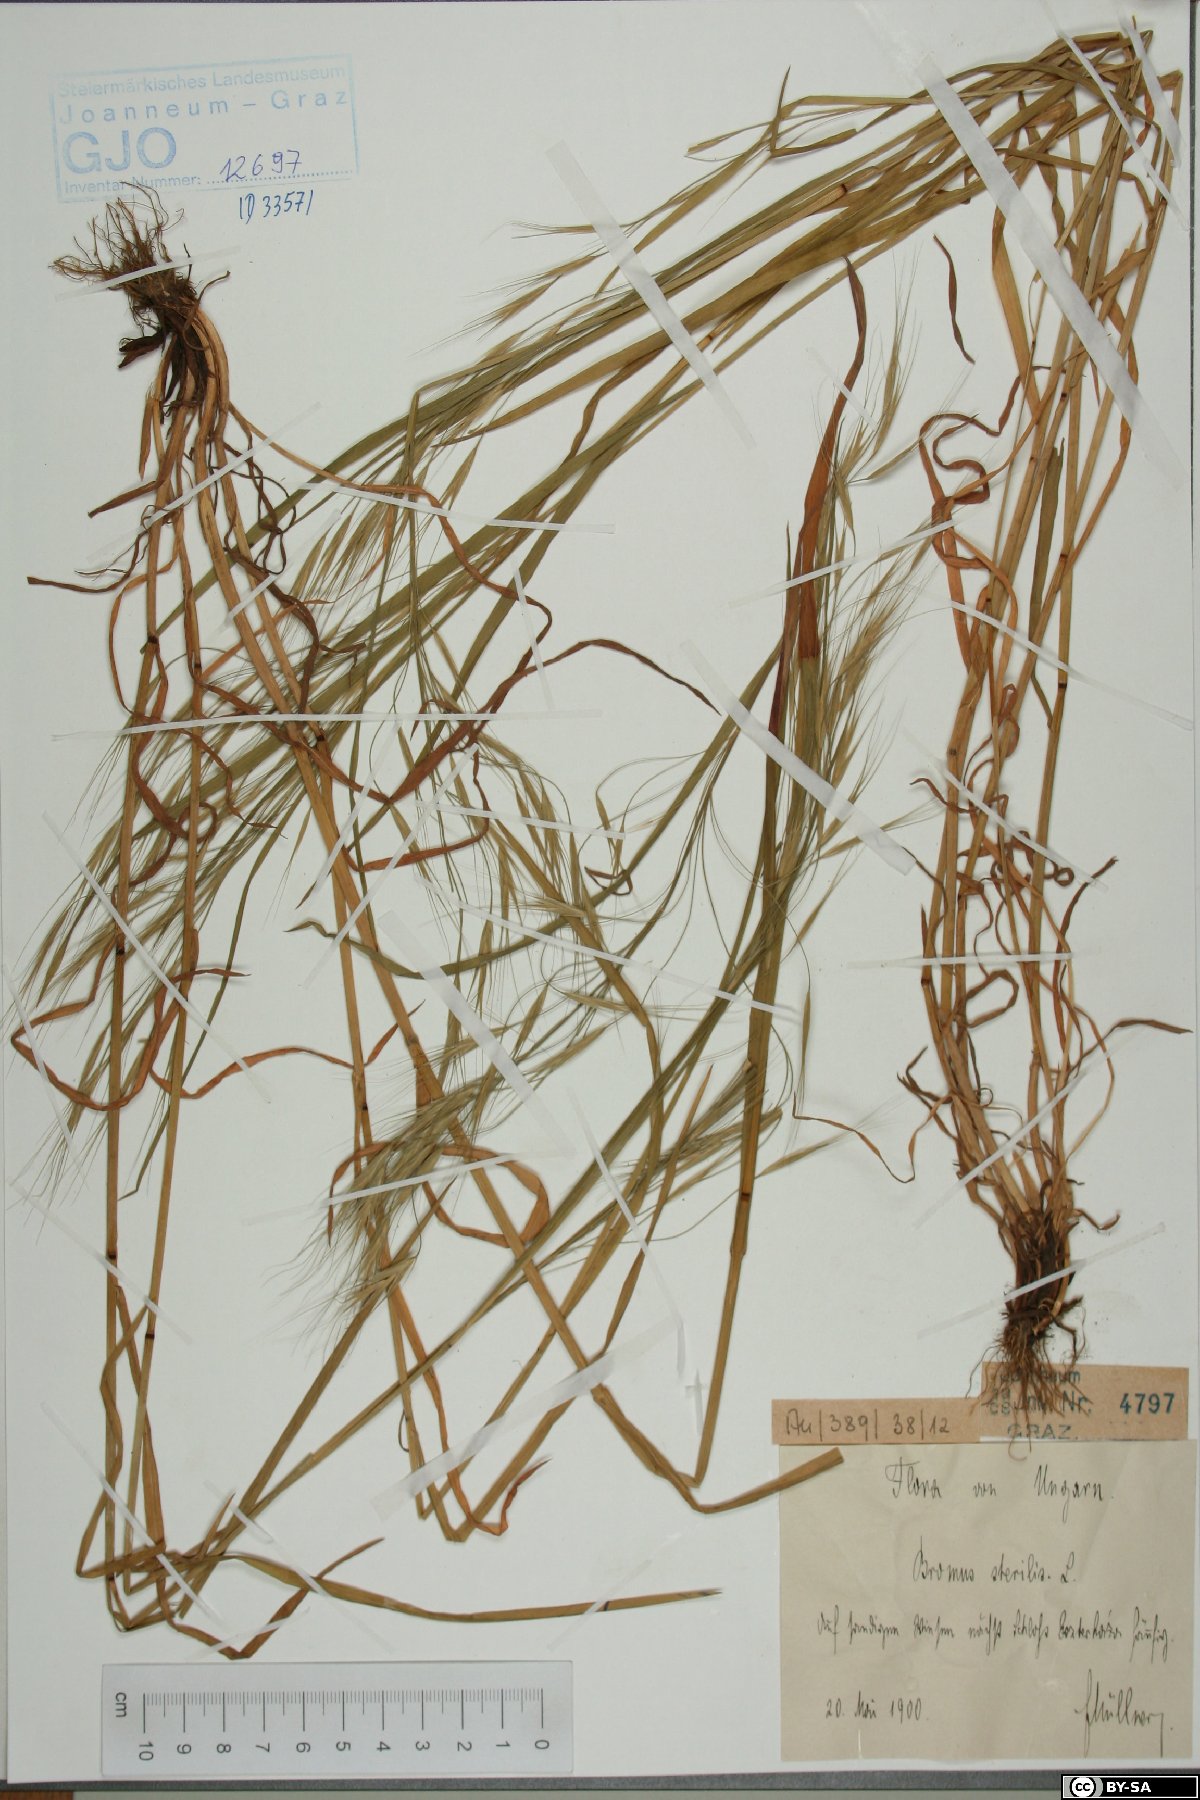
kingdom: Plantae
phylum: Tracheophyta
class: Liliopsida
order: Poales
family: Poaceae
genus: Bromus
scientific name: Bromus sterilis
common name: Poverty brome
